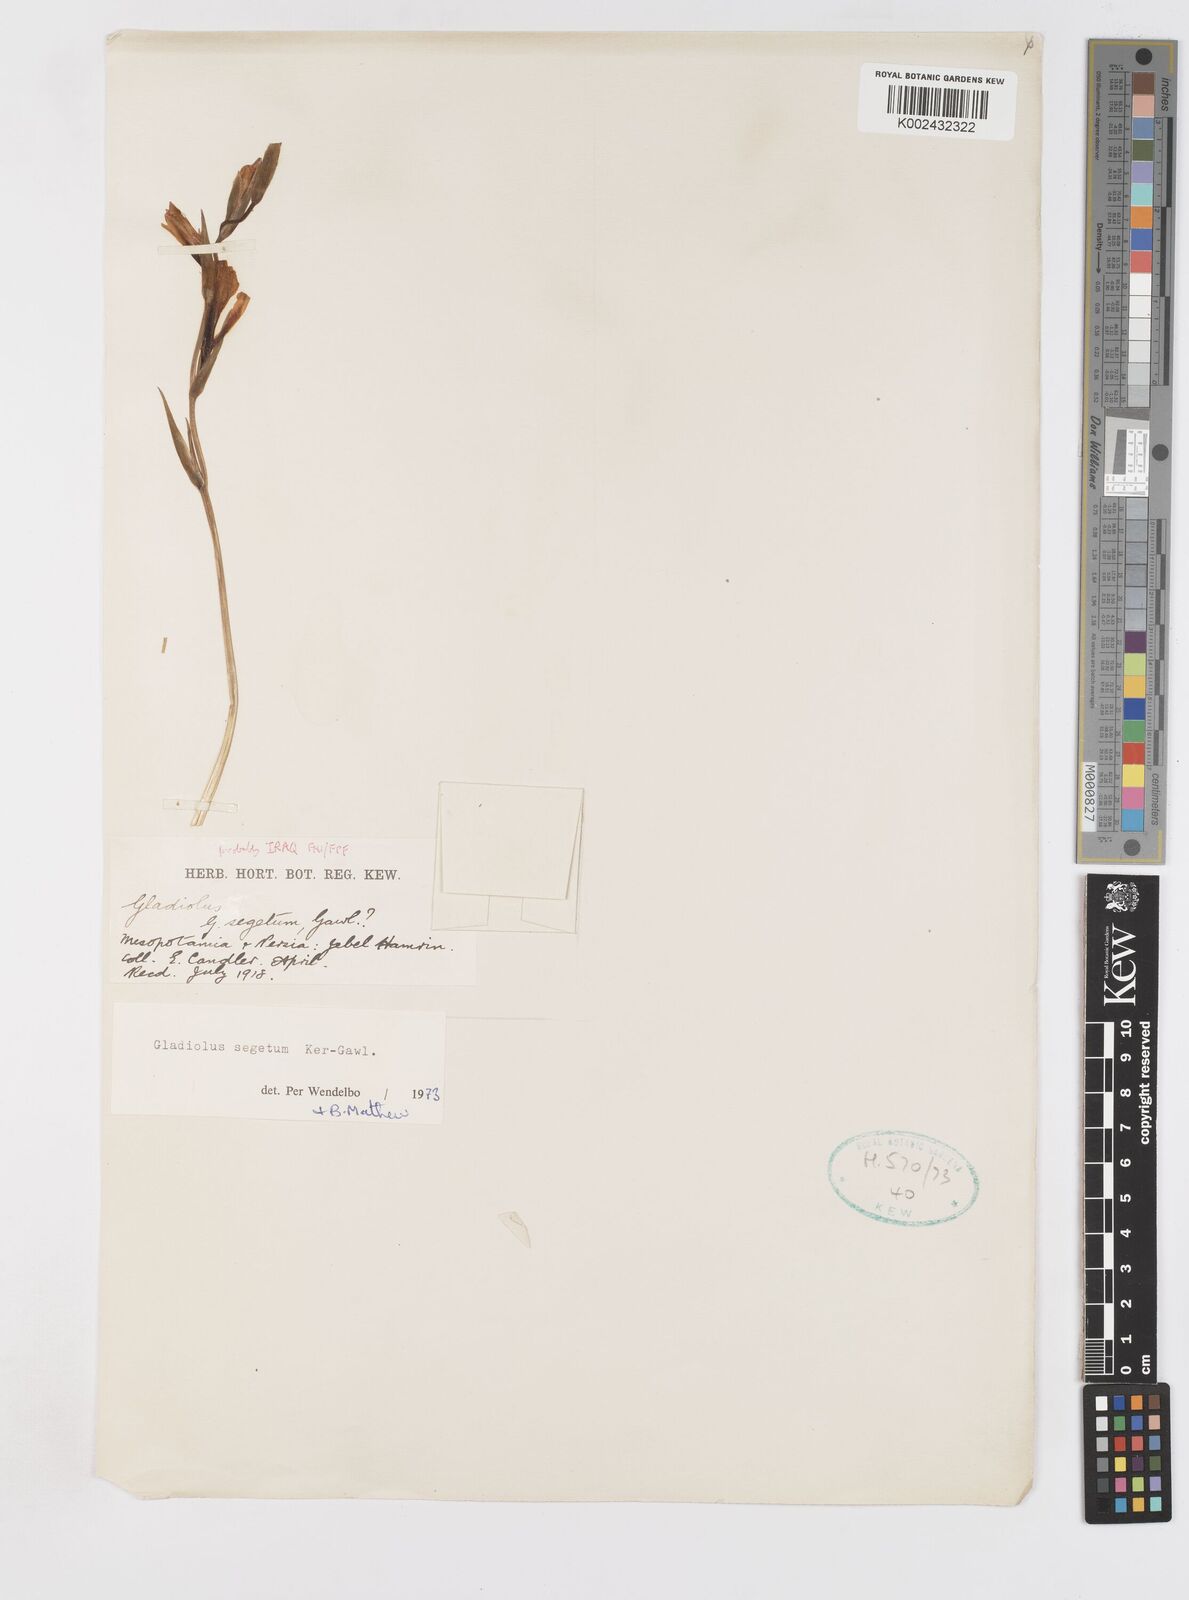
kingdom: Plantae
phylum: Tracheophyta
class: Liliopsida
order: Asparagales
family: Iridaceae
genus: Gladiolus
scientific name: Gladiolus italicus
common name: Field gladiolus
